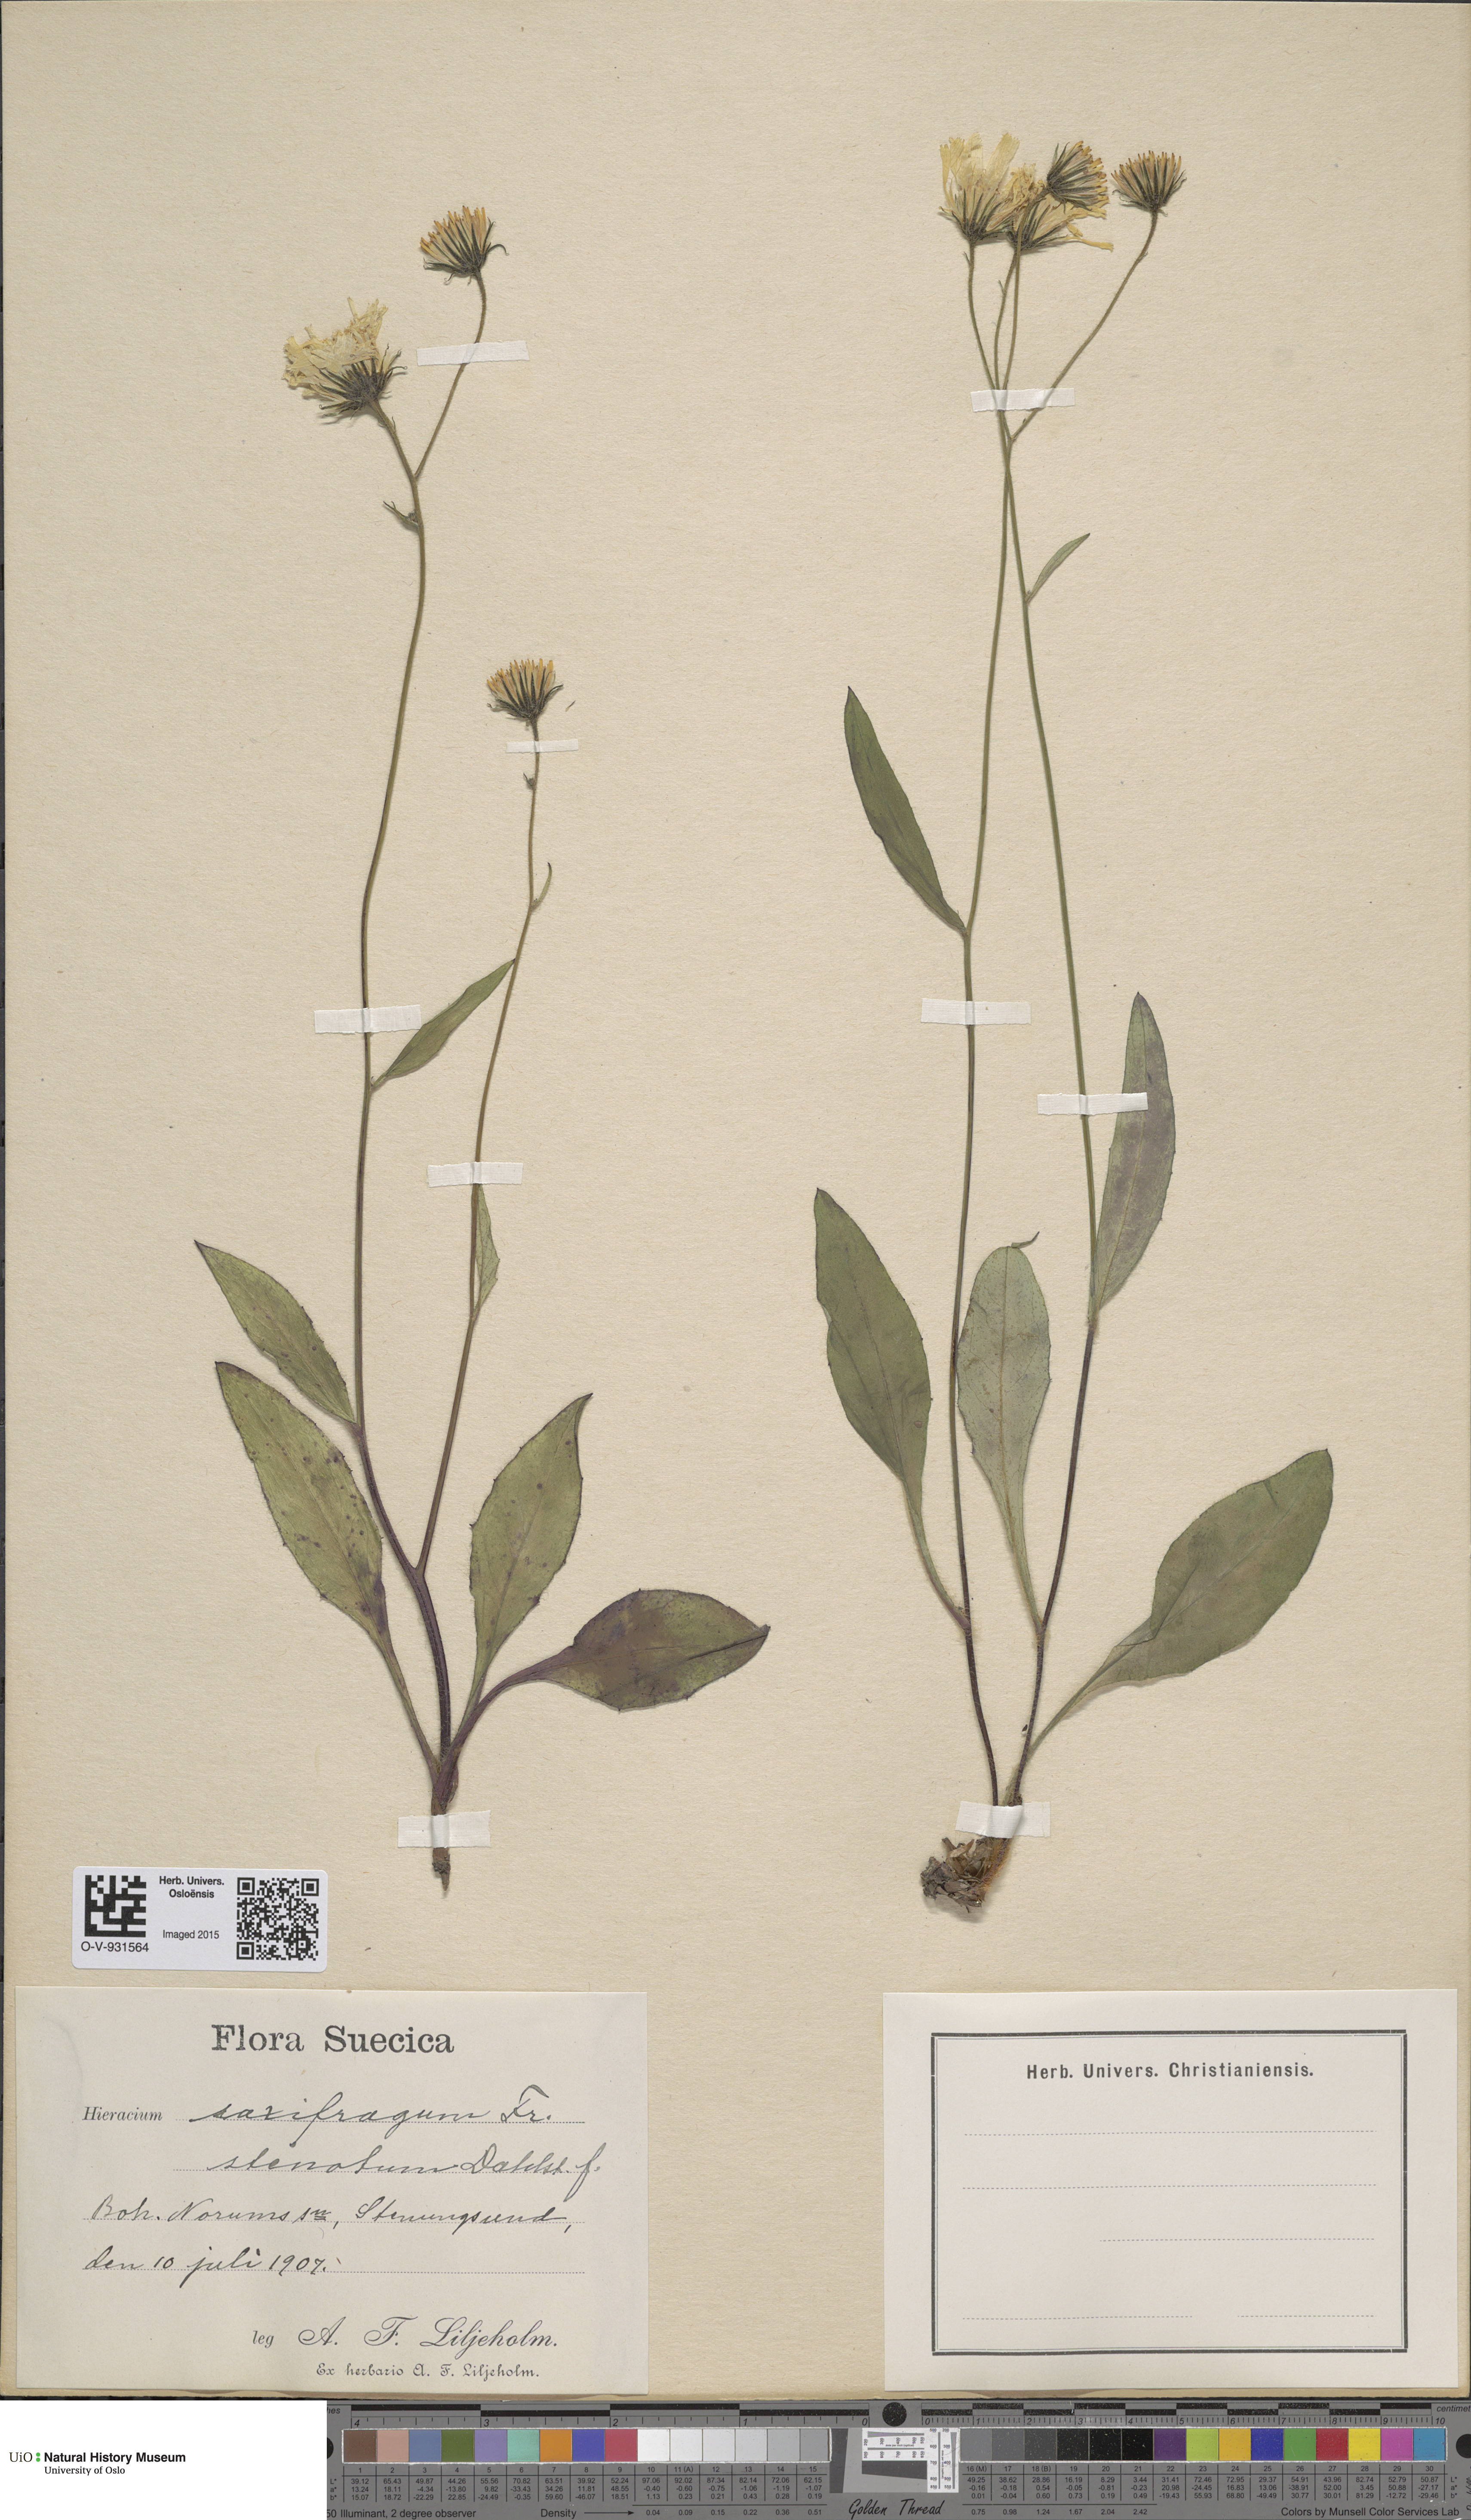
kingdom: Plantae
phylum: Tracheophyta
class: Magnoliopsida
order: Asterales
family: Asteraceae
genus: Hieracium
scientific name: Hieracium saxifragum
